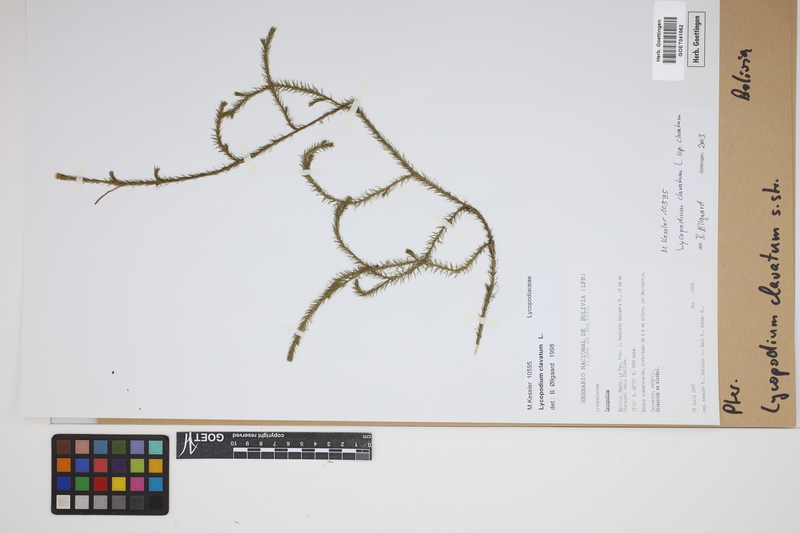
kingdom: Plantae
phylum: Tracheophyta
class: Lycopodiopsida
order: Lycopodiales
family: Lycopodiaceae
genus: Lycopodium
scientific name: Lycopodium clavatum
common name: Stag's-horn clubmoss
